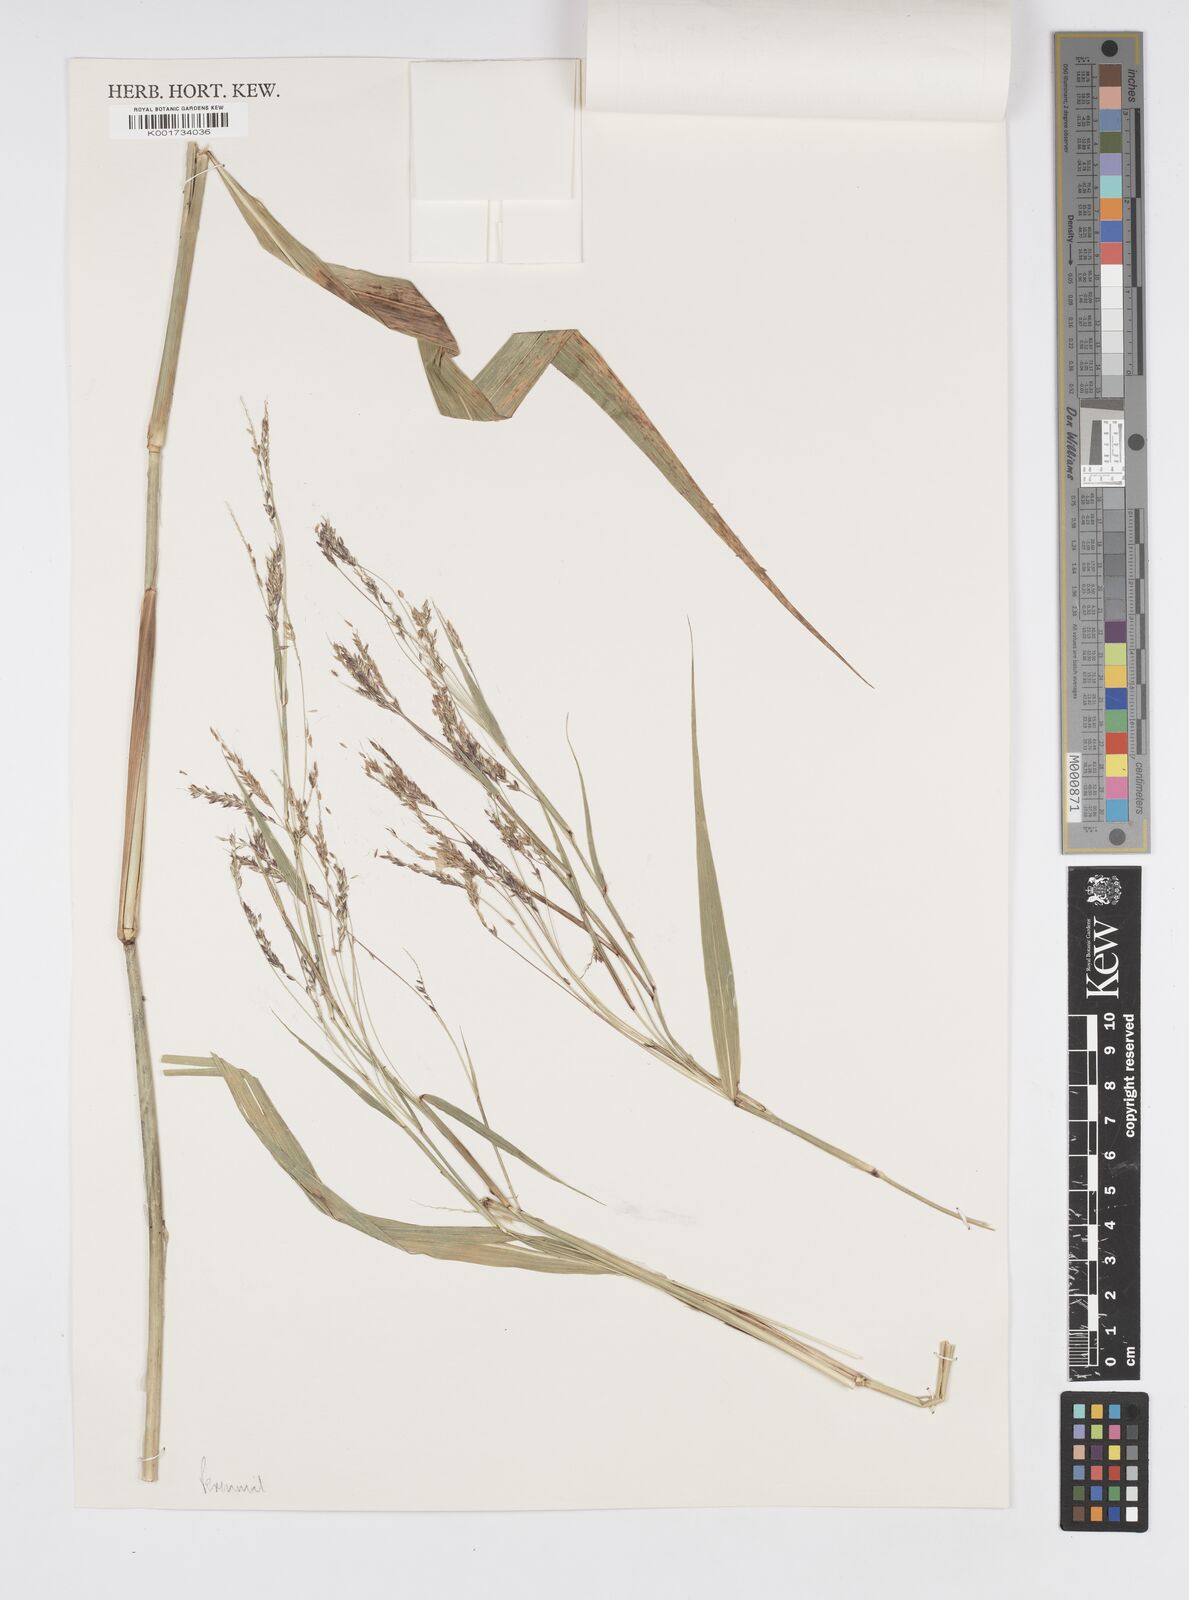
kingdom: Plantae
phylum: Tracheophyta
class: Liliopsida
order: Poales
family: Poaceae
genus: Cenchrus
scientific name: Cenchrus unisetus
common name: Natal grass
